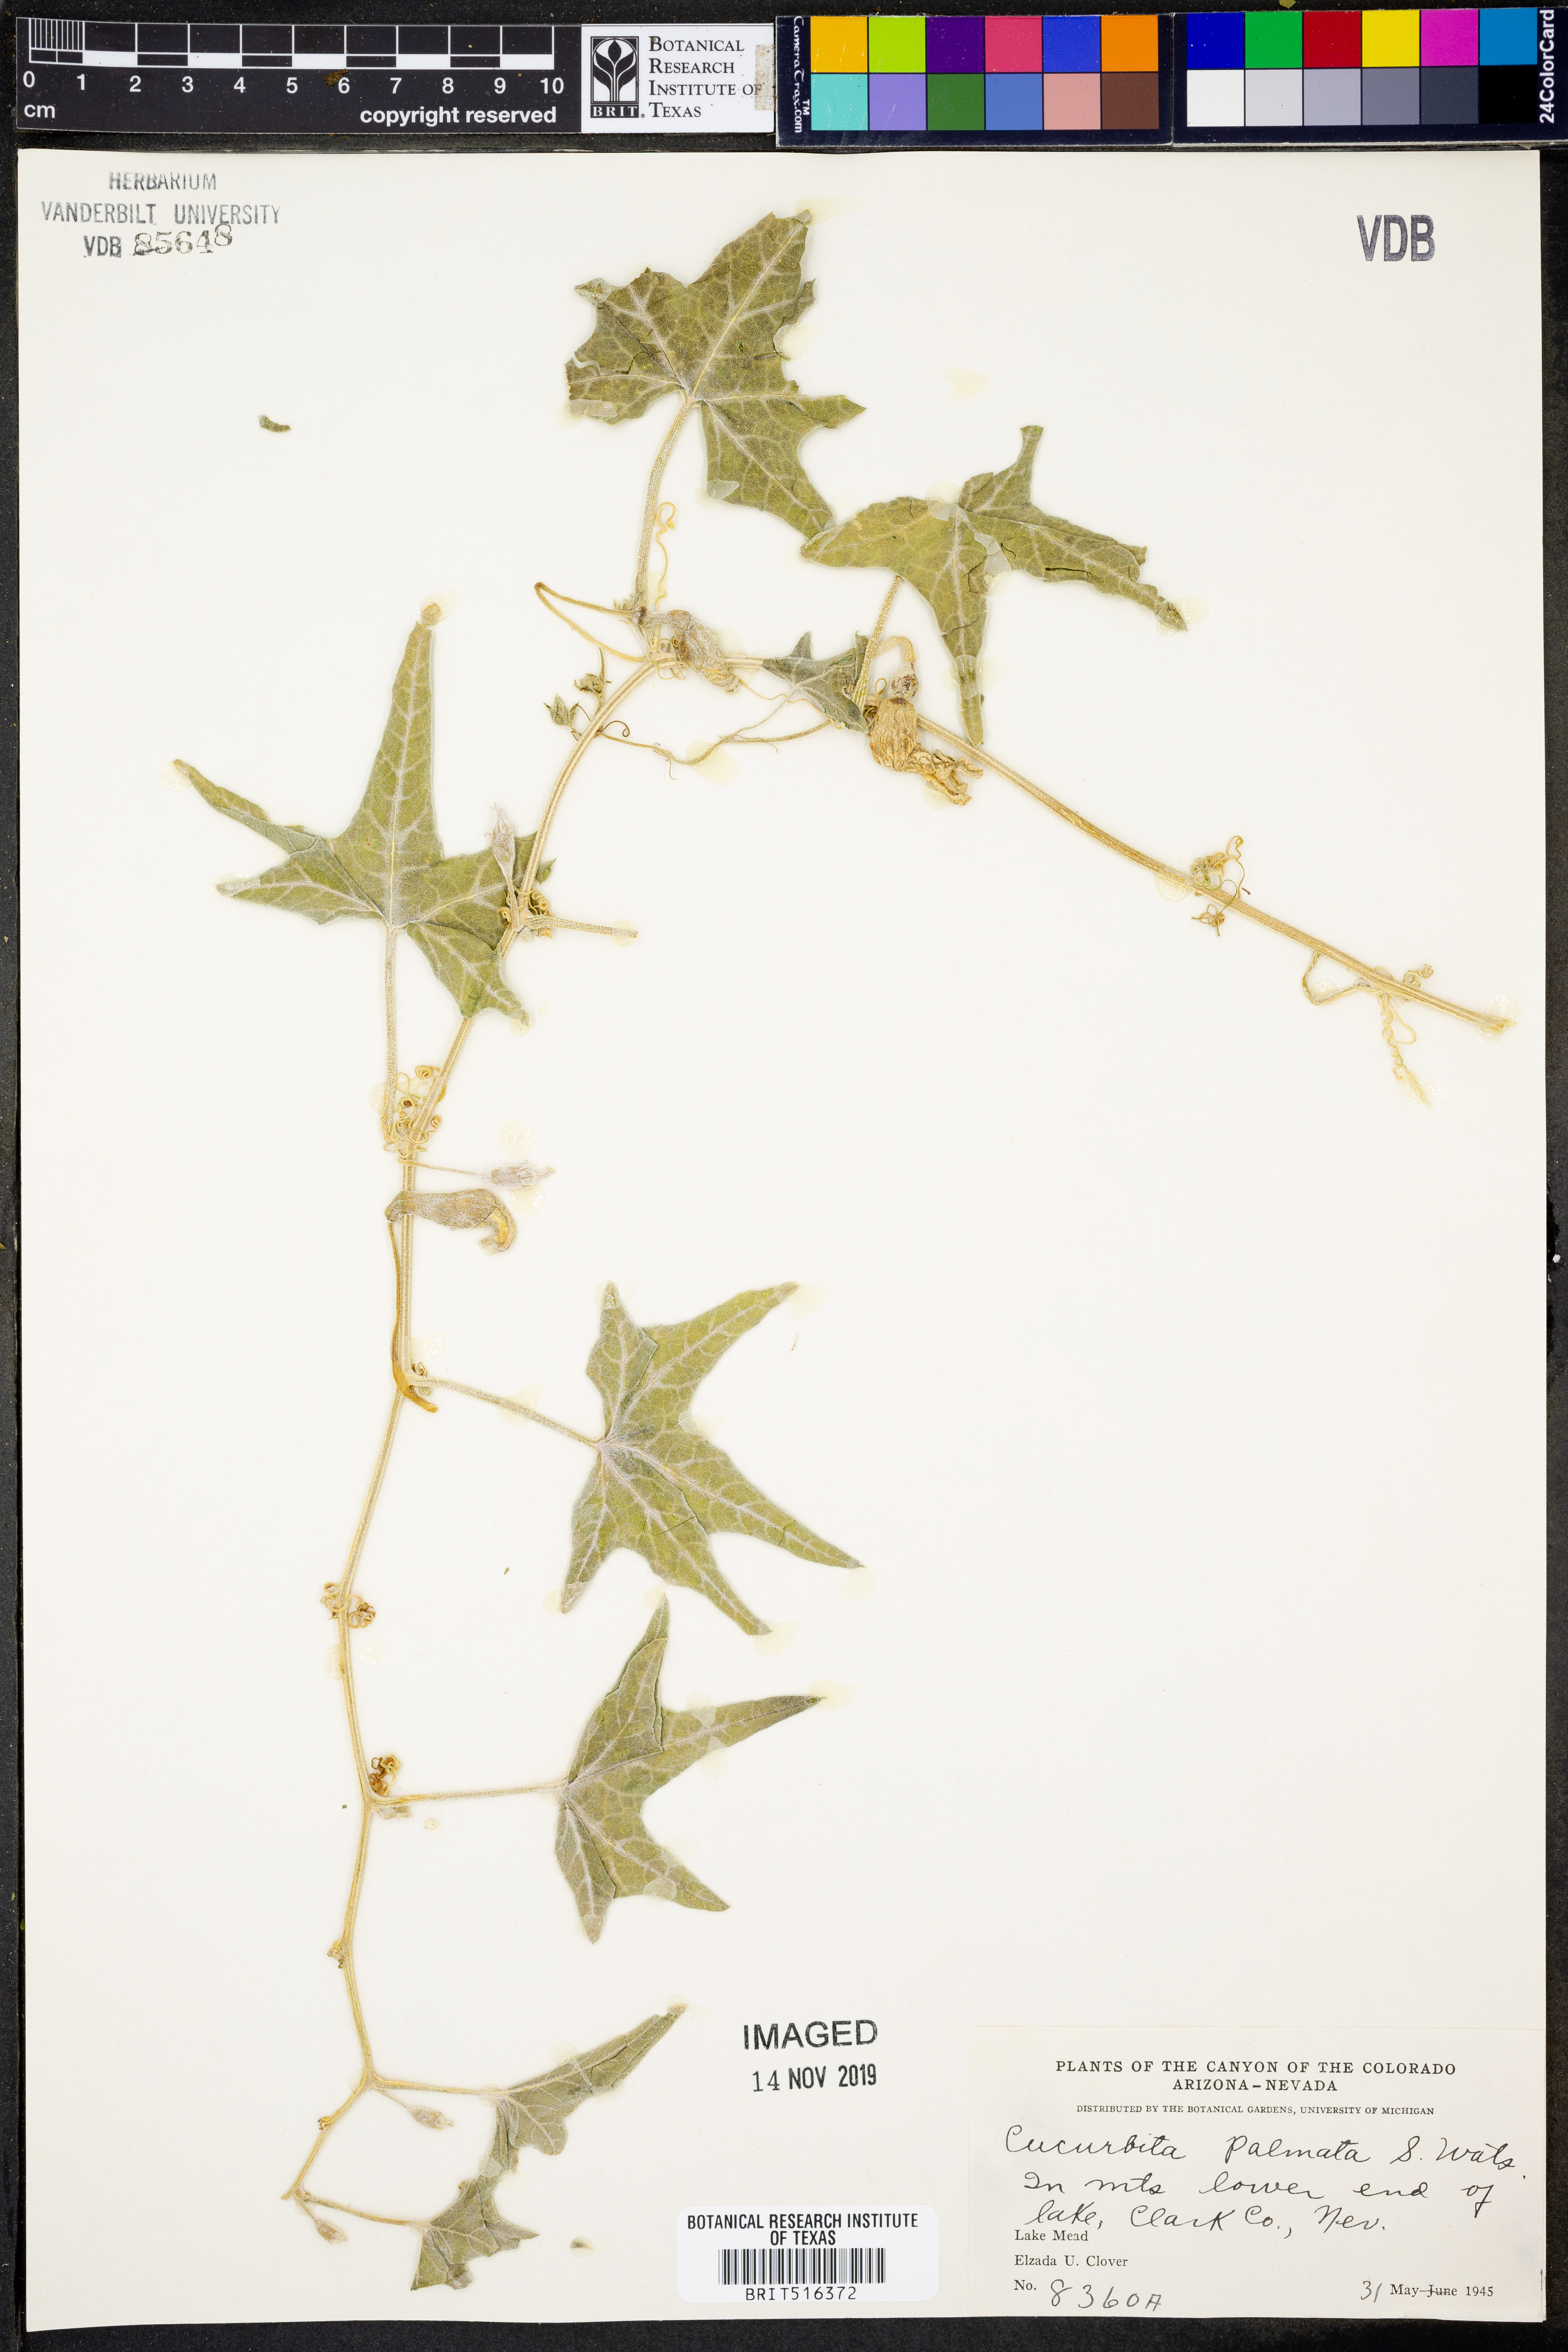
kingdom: Plantae
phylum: Tracheophyta
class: Magnoliopsida
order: Cucurbitales
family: Cucurbitaceae
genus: Cucurbita
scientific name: Cucurbita palmata
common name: Coyote-melon
